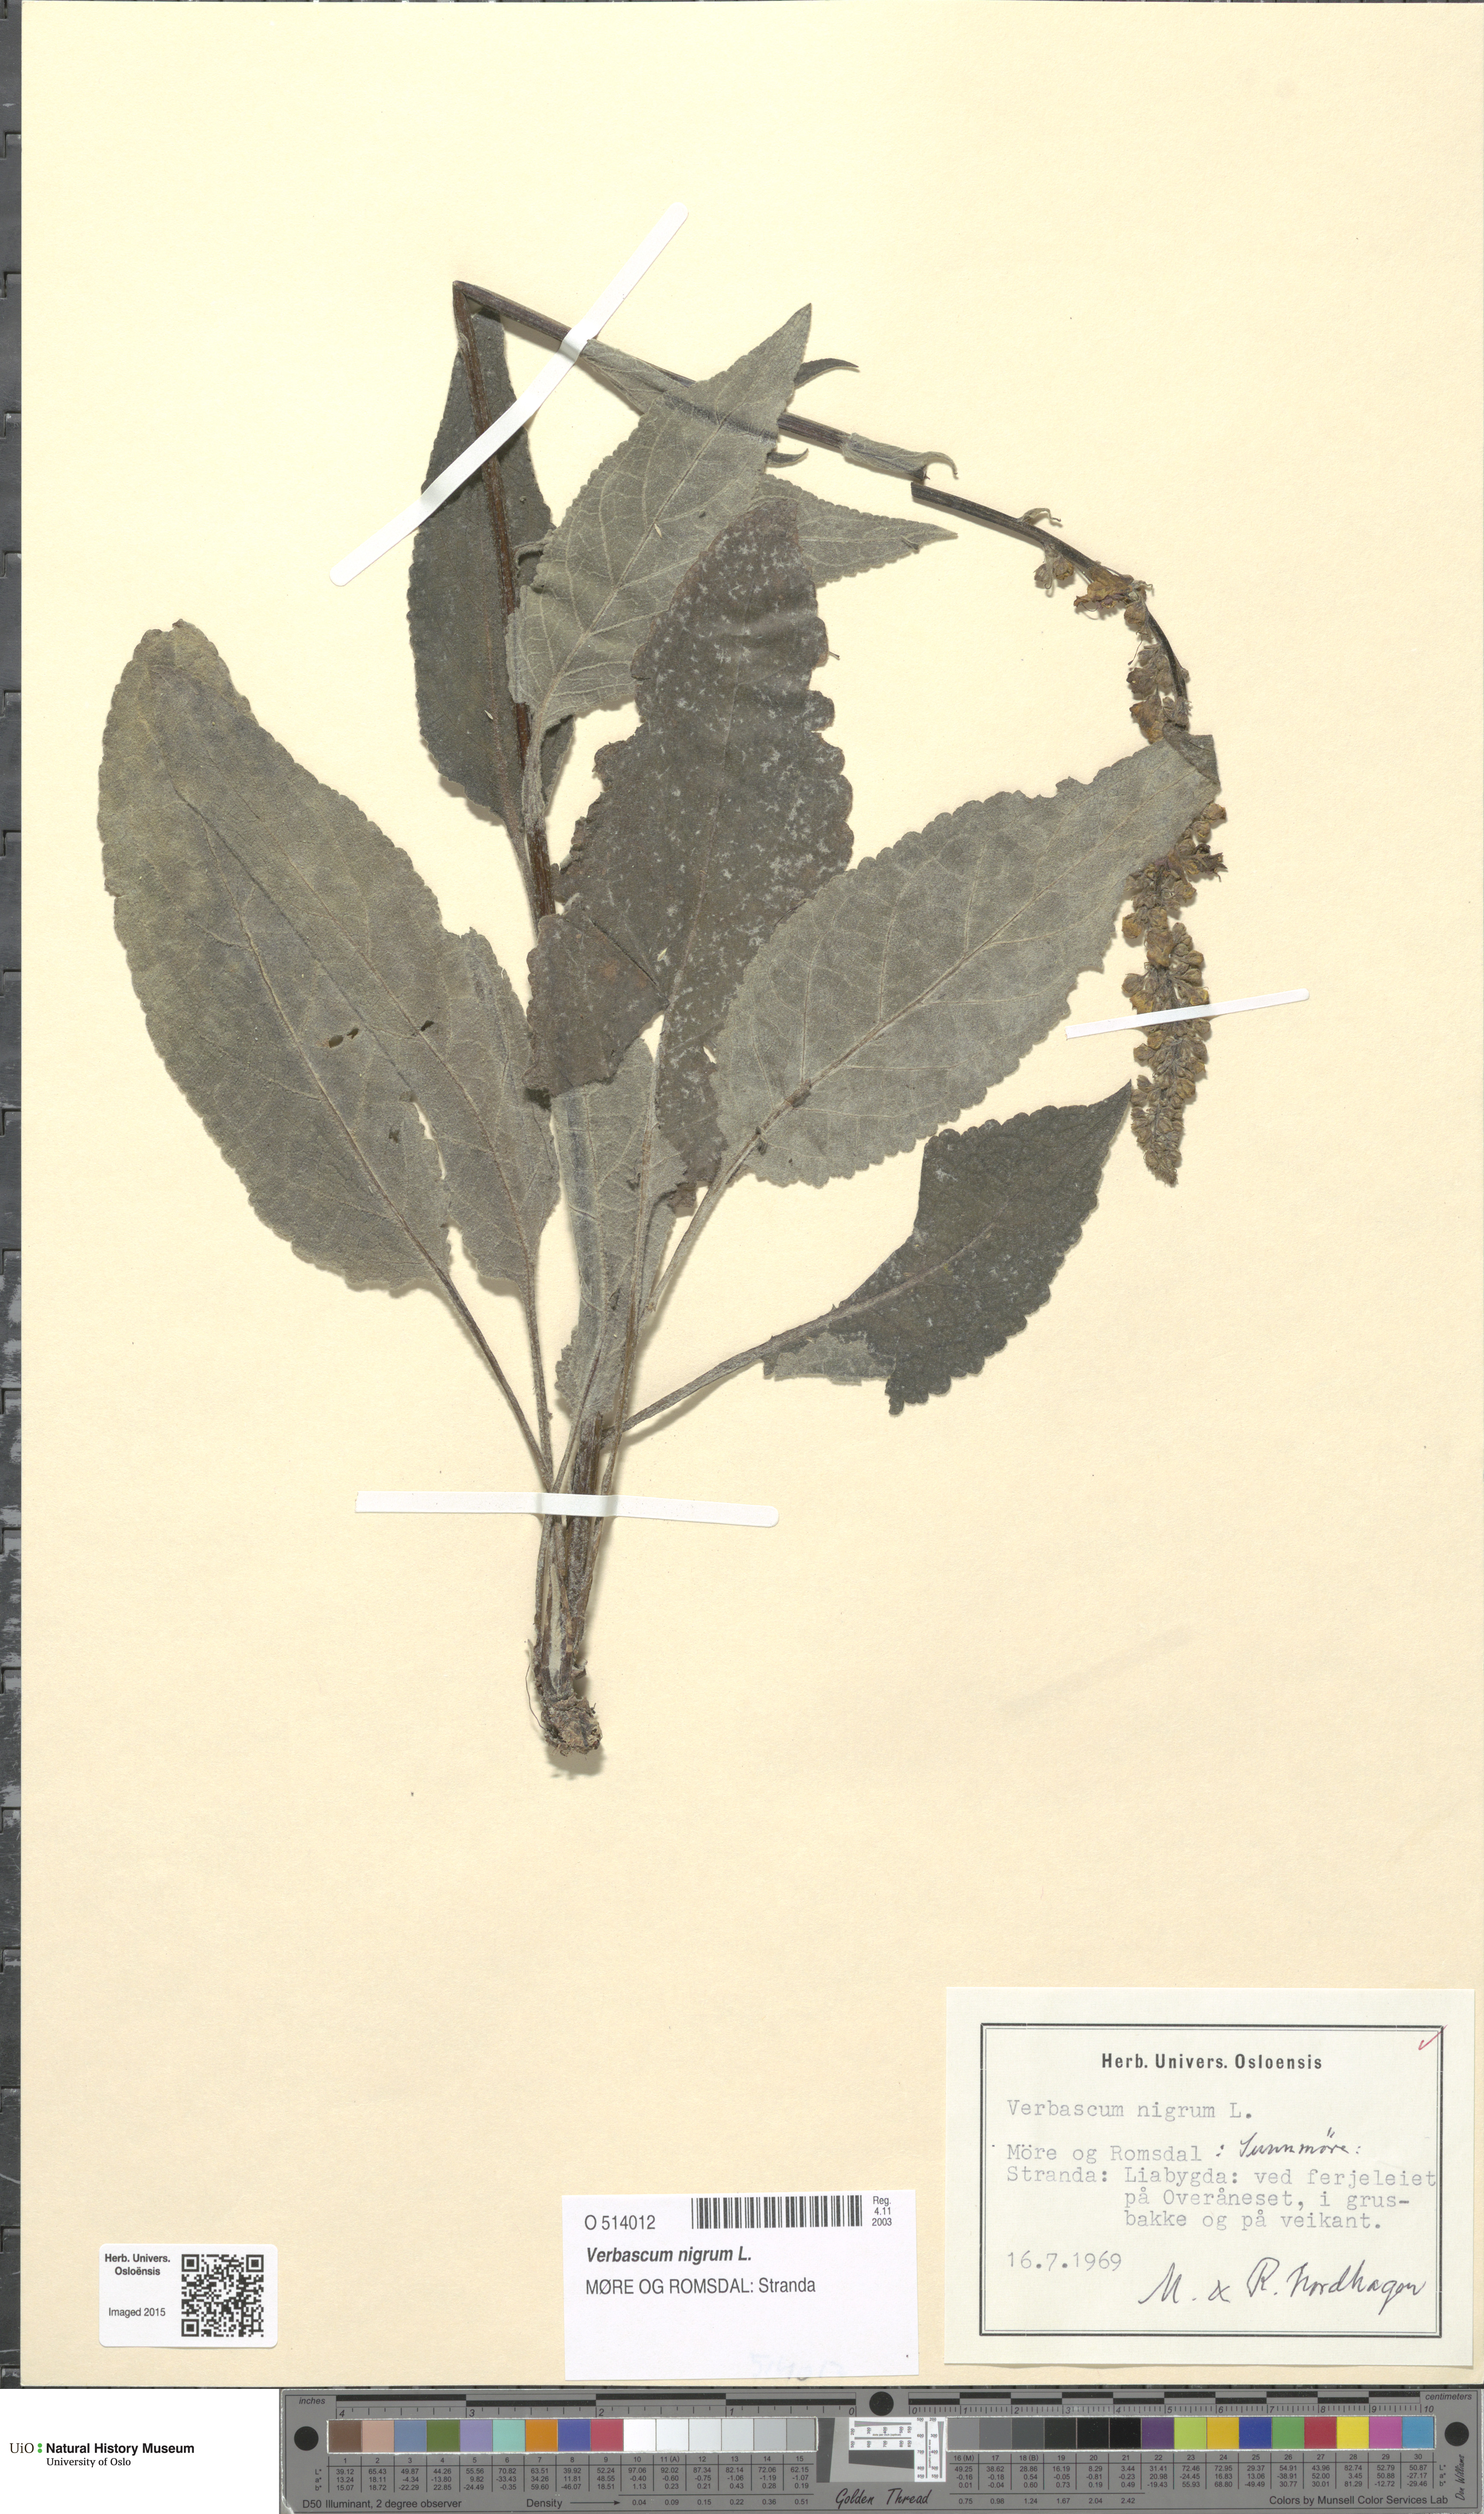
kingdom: Plantae
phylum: Tracheophyta
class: Magnoliopsida
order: Lamiales
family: Scrophulariaceae
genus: Verbascum
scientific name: Verbascum nigrum
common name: Dark mullein
